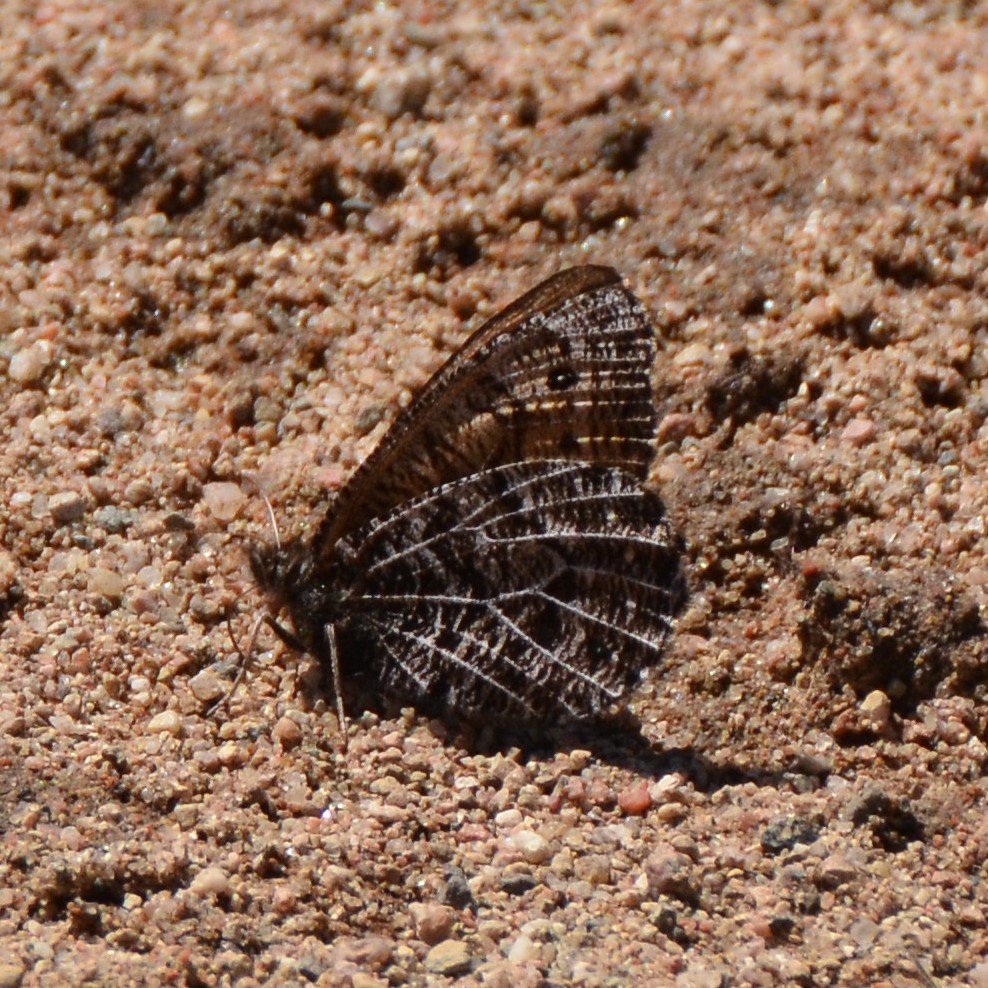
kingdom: Animalia
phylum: Arthropoda
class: Insecta
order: Lepidoptera
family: Nymphalidae
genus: Oeneis
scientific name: Oeneis chryxus
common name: Chryxus Arctic
